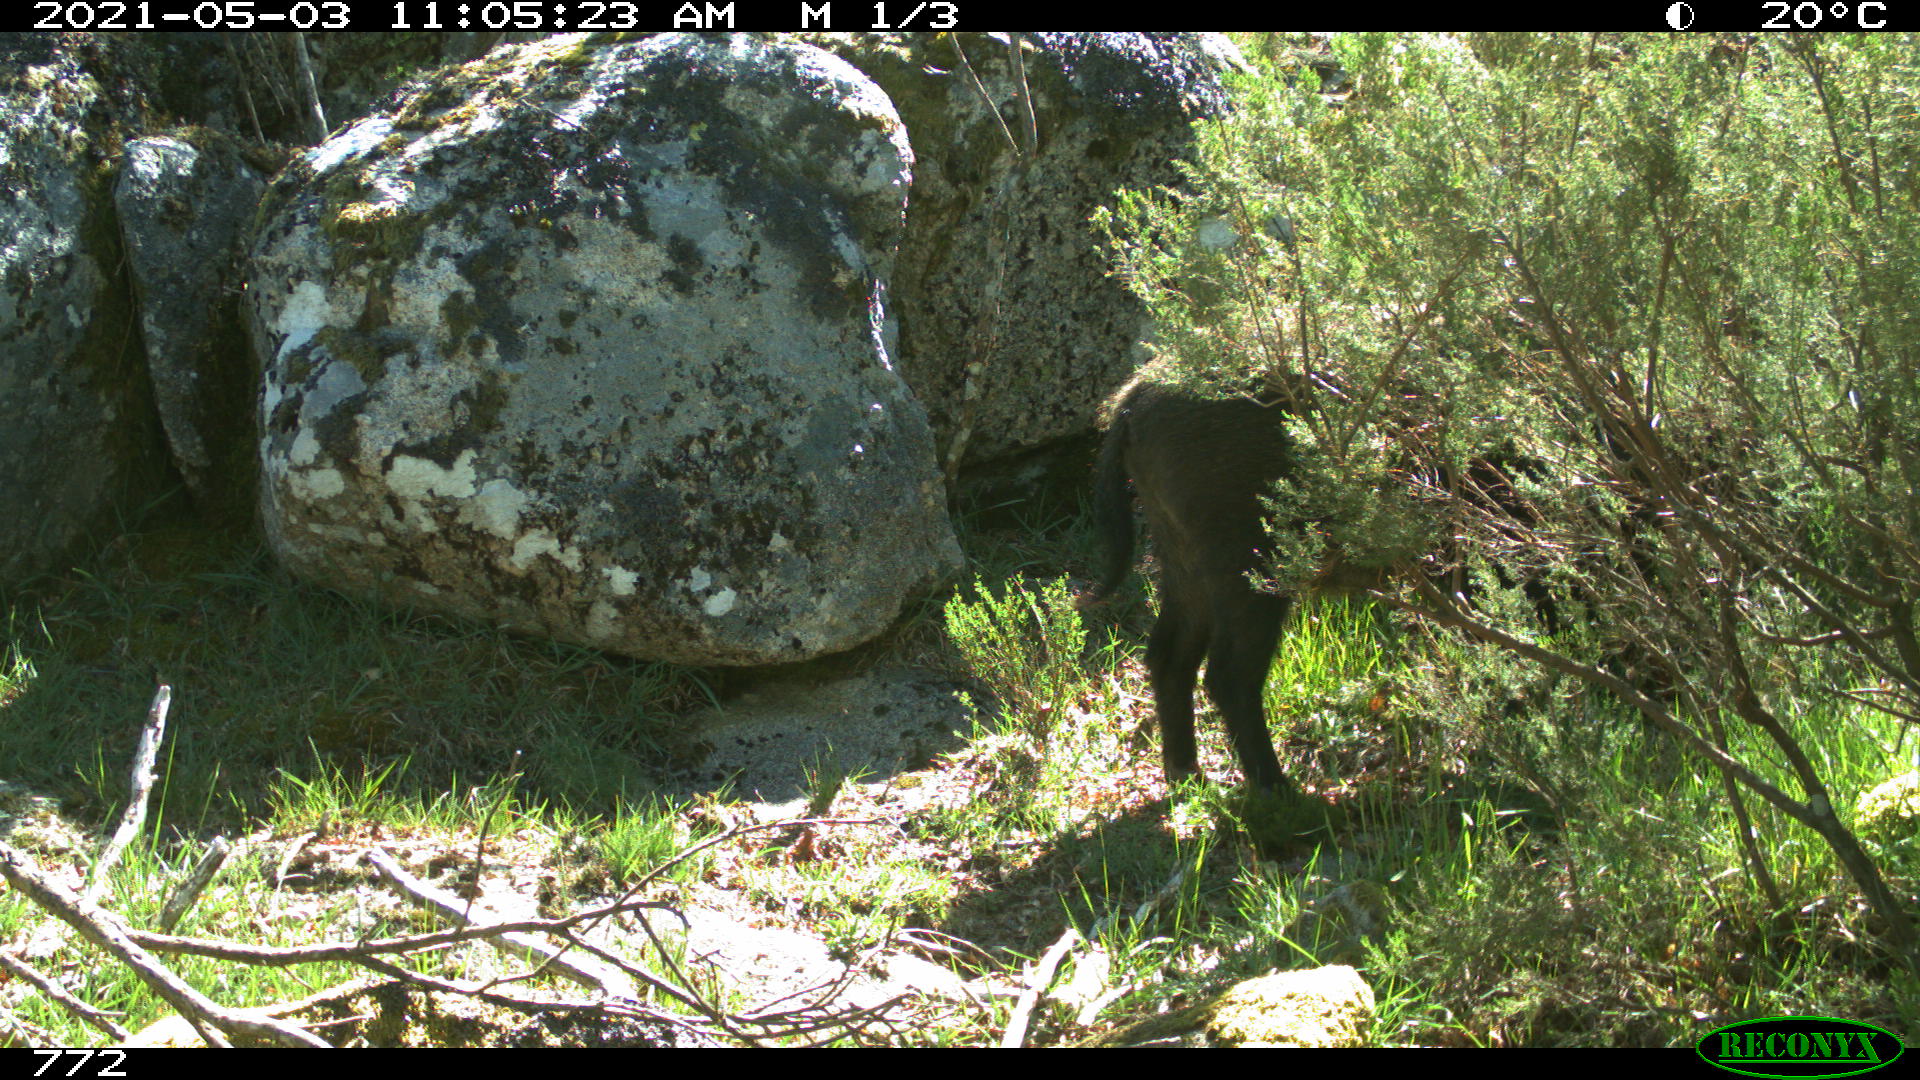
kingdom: Animalia
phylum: Chordata
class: Mammalia
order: Artiodactyla
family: Suidae
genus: Sus
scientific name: Sus scrofa
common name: Wild boar
